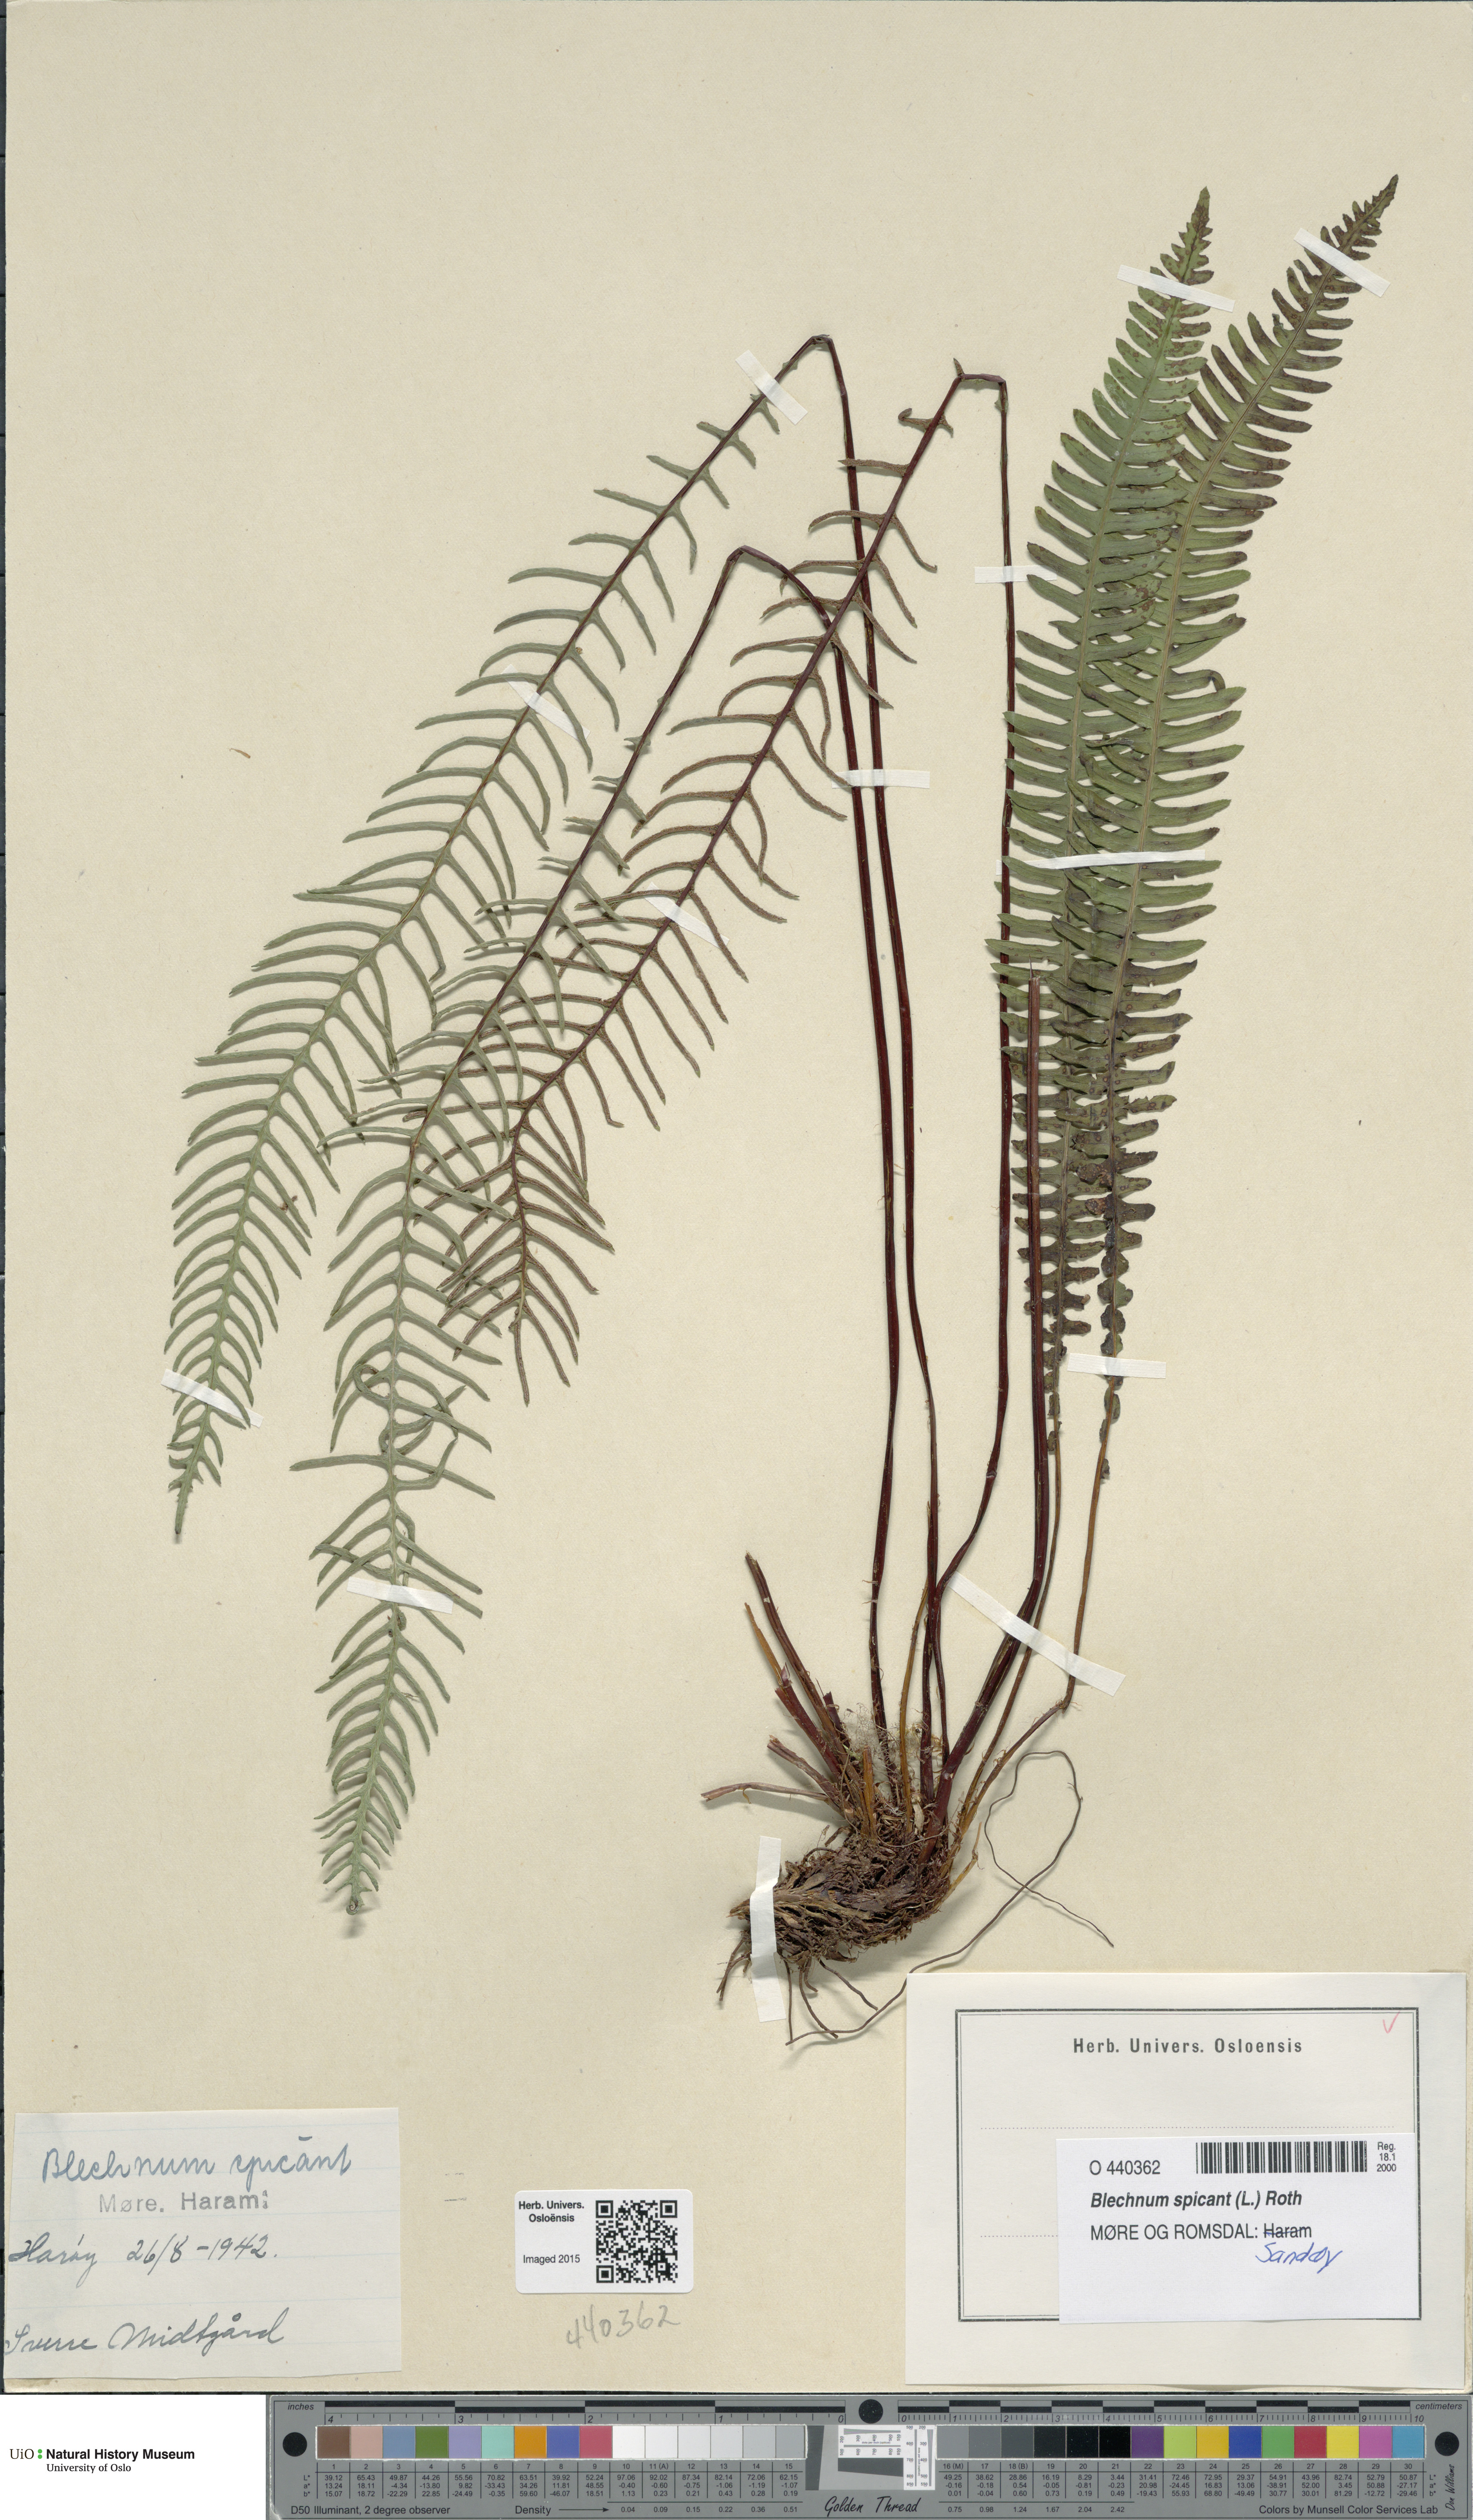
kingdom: Plantae
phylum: Tracheophyta
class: Polypodiopsida
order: Polypodiales
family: Blechnaceae
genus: Struthiopteris
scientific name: Struthiopteris spicant
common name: Deer fern
